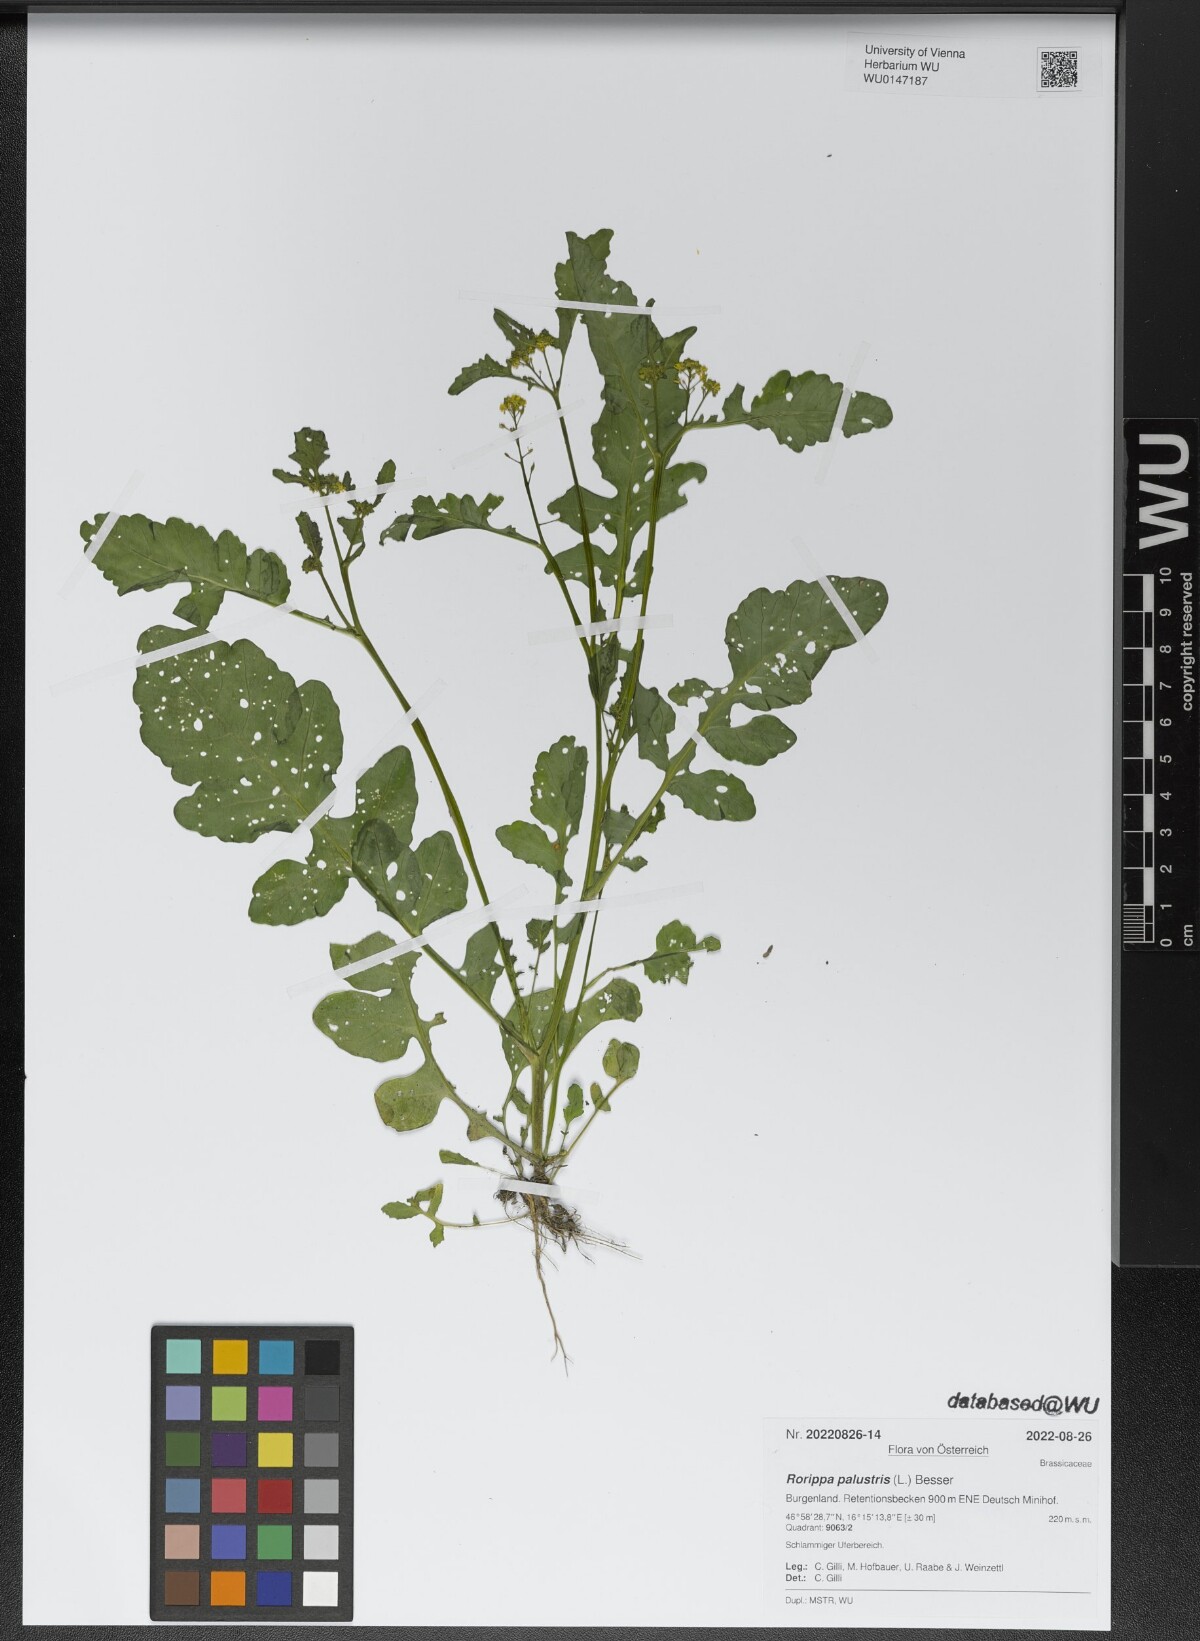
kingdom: Plantae
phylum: Tracheophyta
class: Magnoliopsida
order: Brassicales
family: Brassicaceae
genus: Rorippa
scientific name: Rorippa palustris
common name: Marsh yellow-cress
